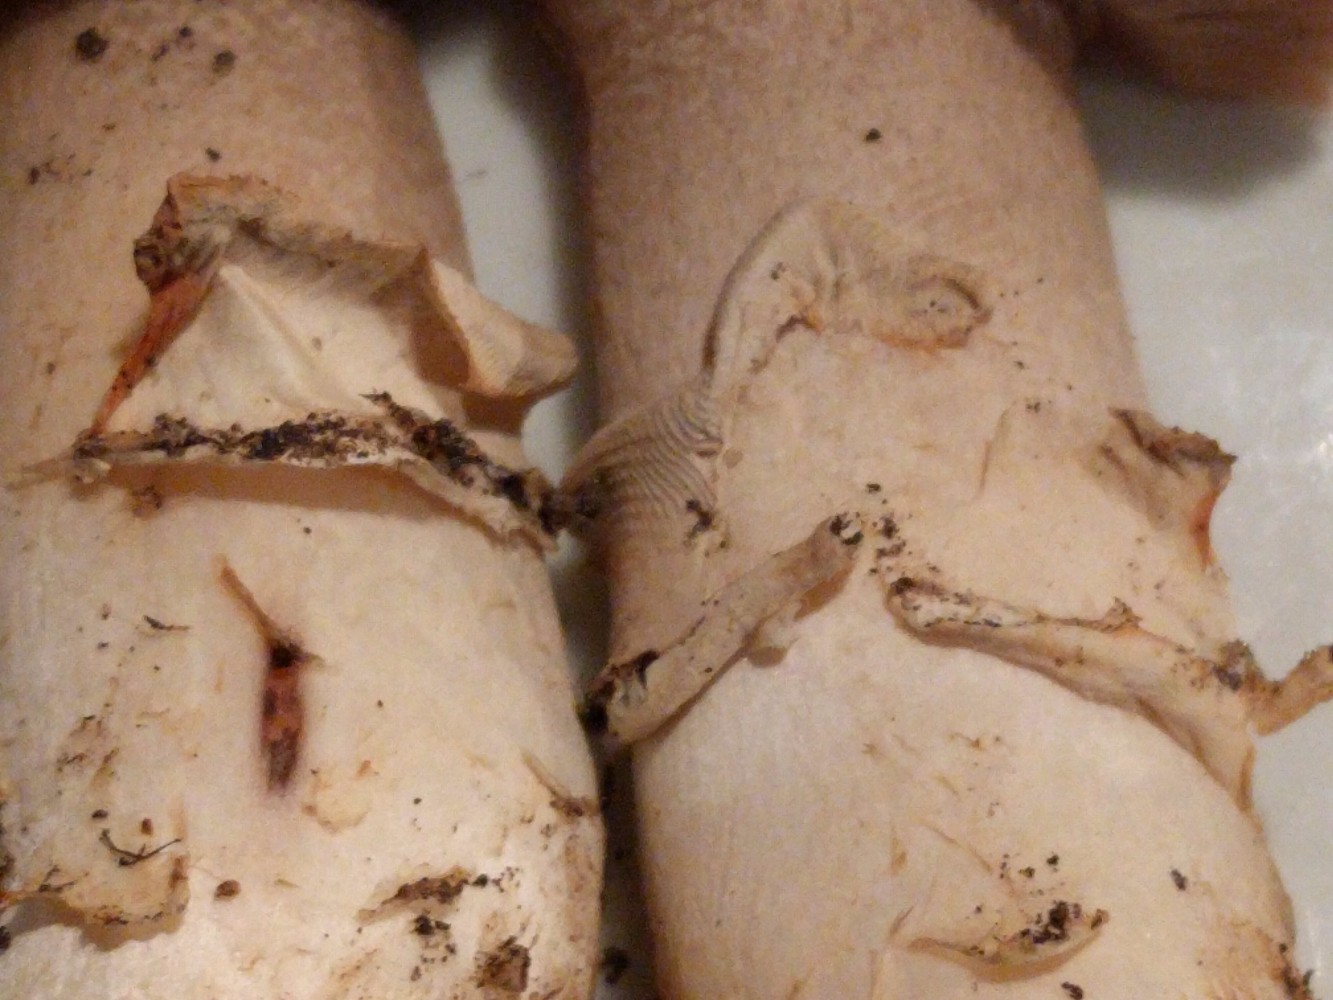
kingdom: Fungi
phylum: Basidiomycota
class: Agaricomycetes
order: Agaricales
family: Agaricaceae
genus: Agaricus
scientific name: Agaricus bitorquis
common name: vej-champignon
